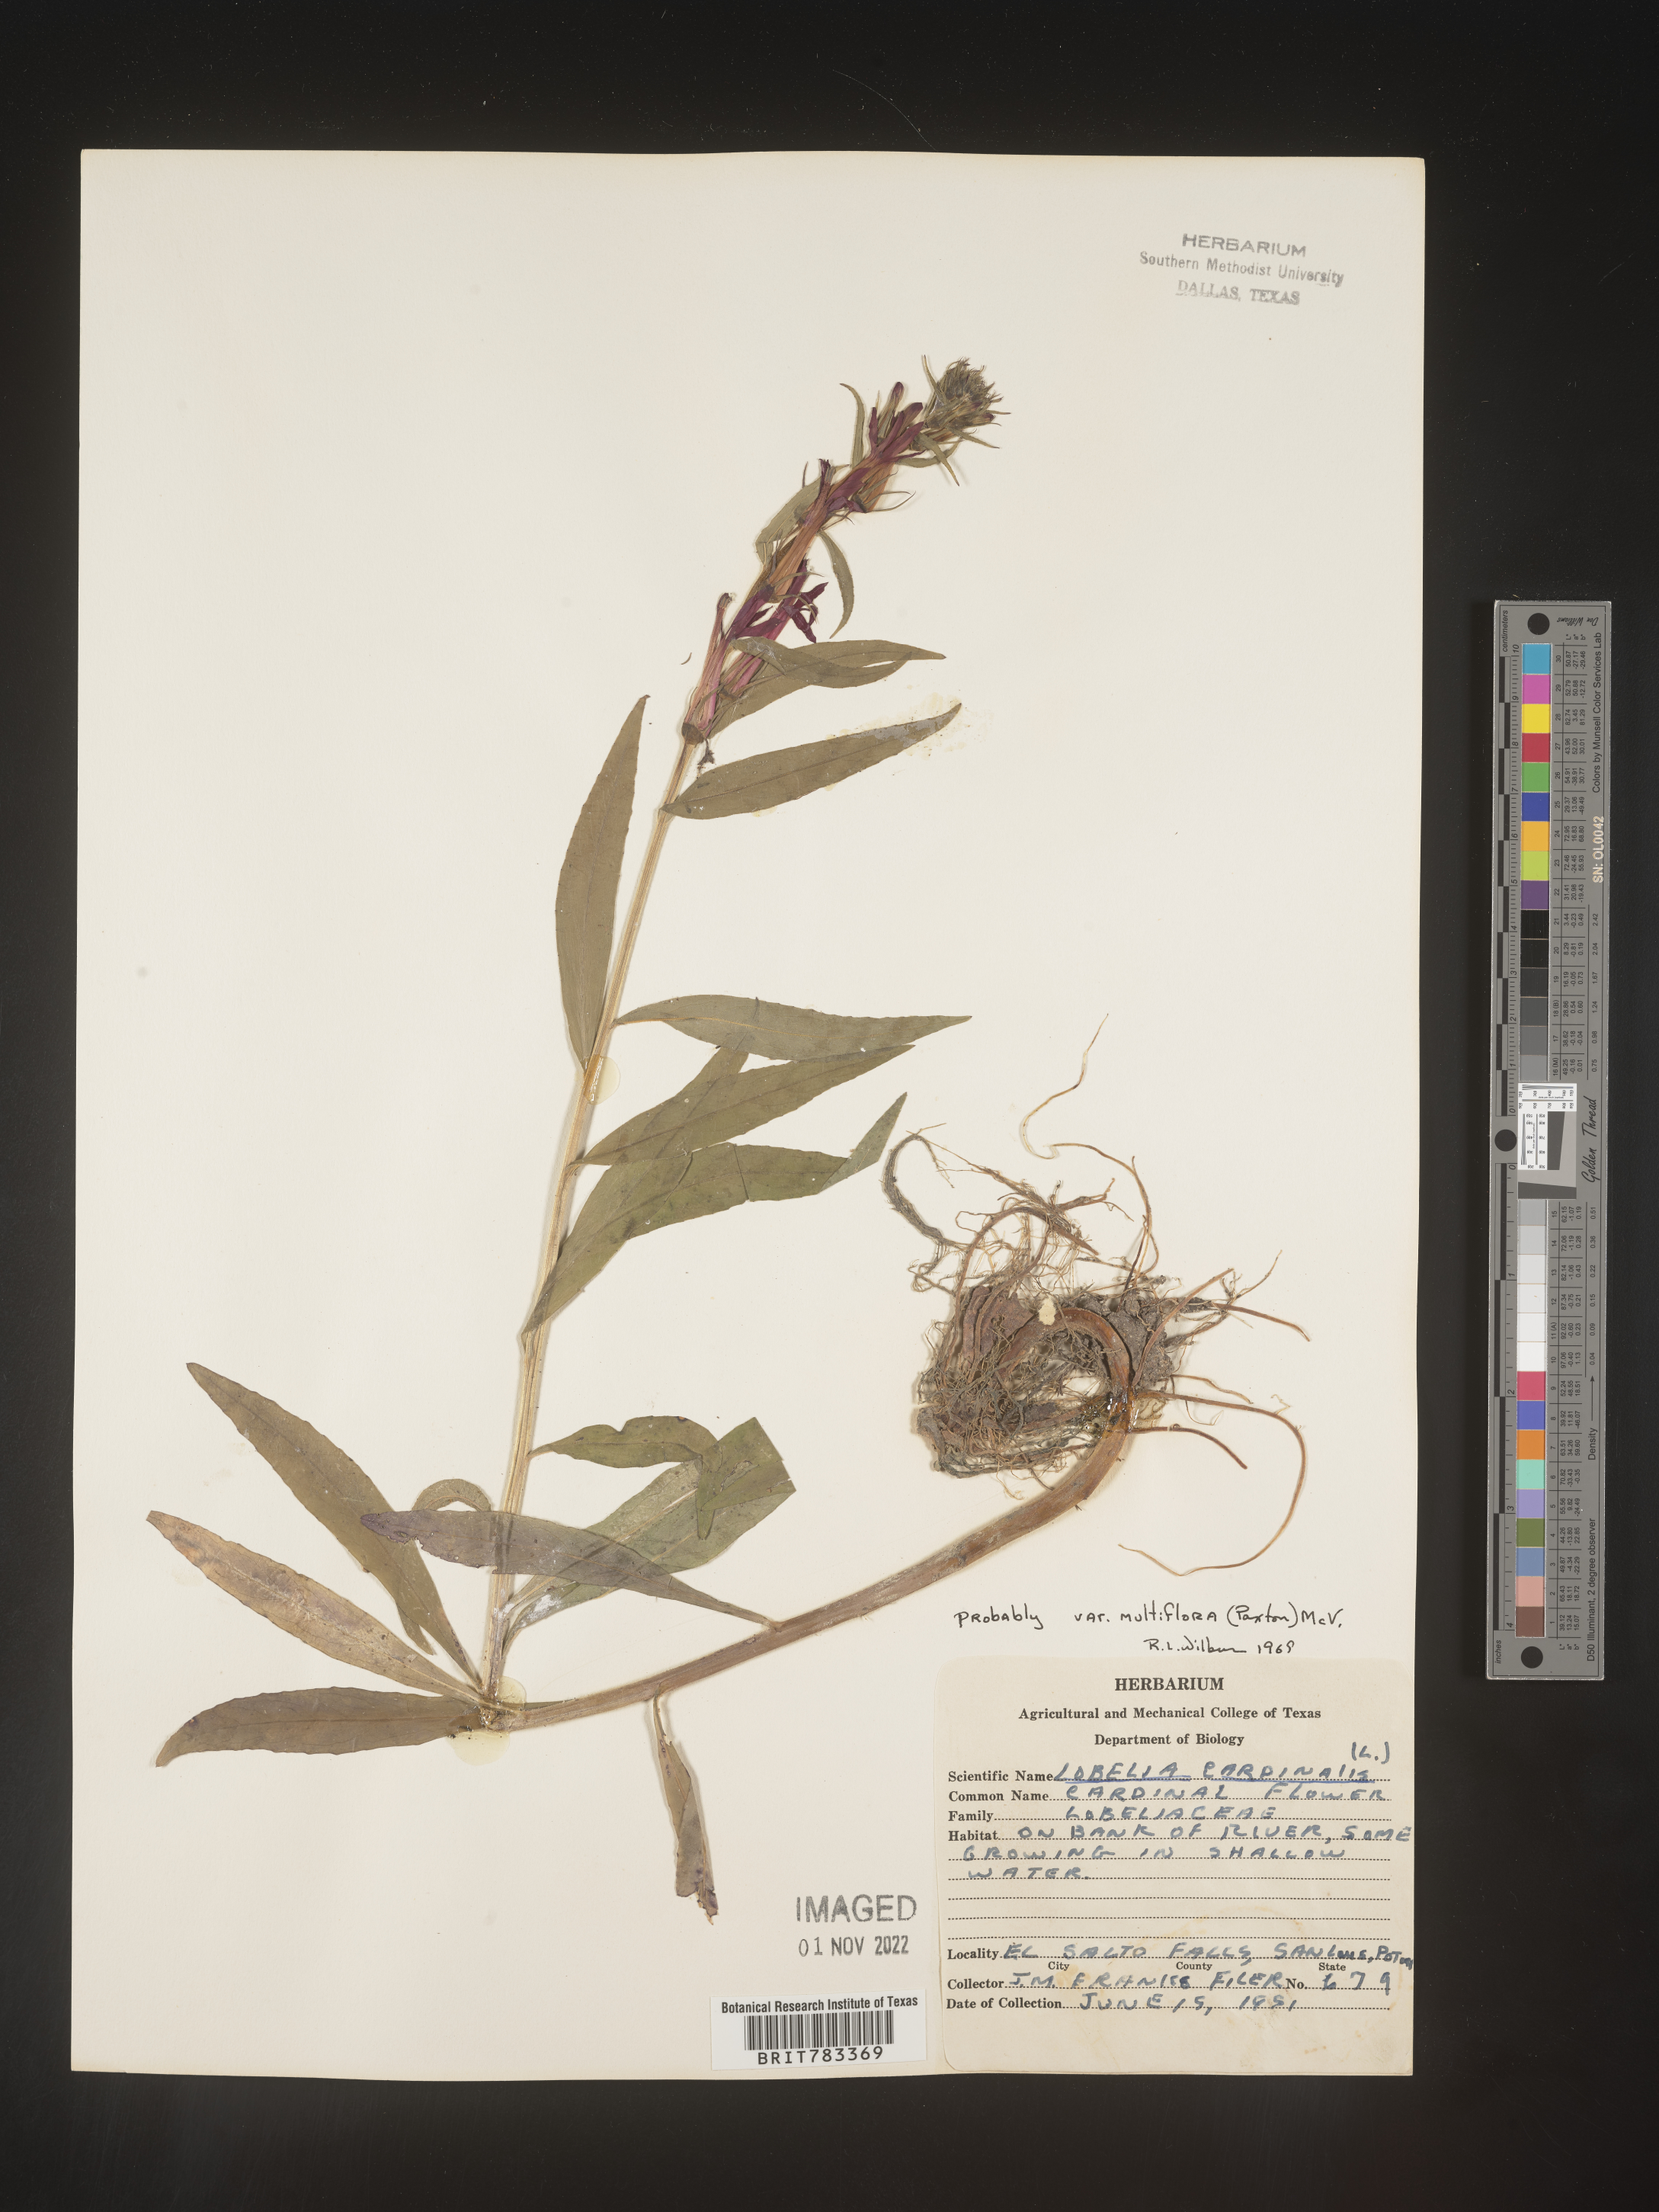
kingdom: Plantae
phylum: Tracheophyta
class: Magnoliopsida
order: Asterales
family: Campanulaceae
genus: Lobelia
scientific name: Lobelia
